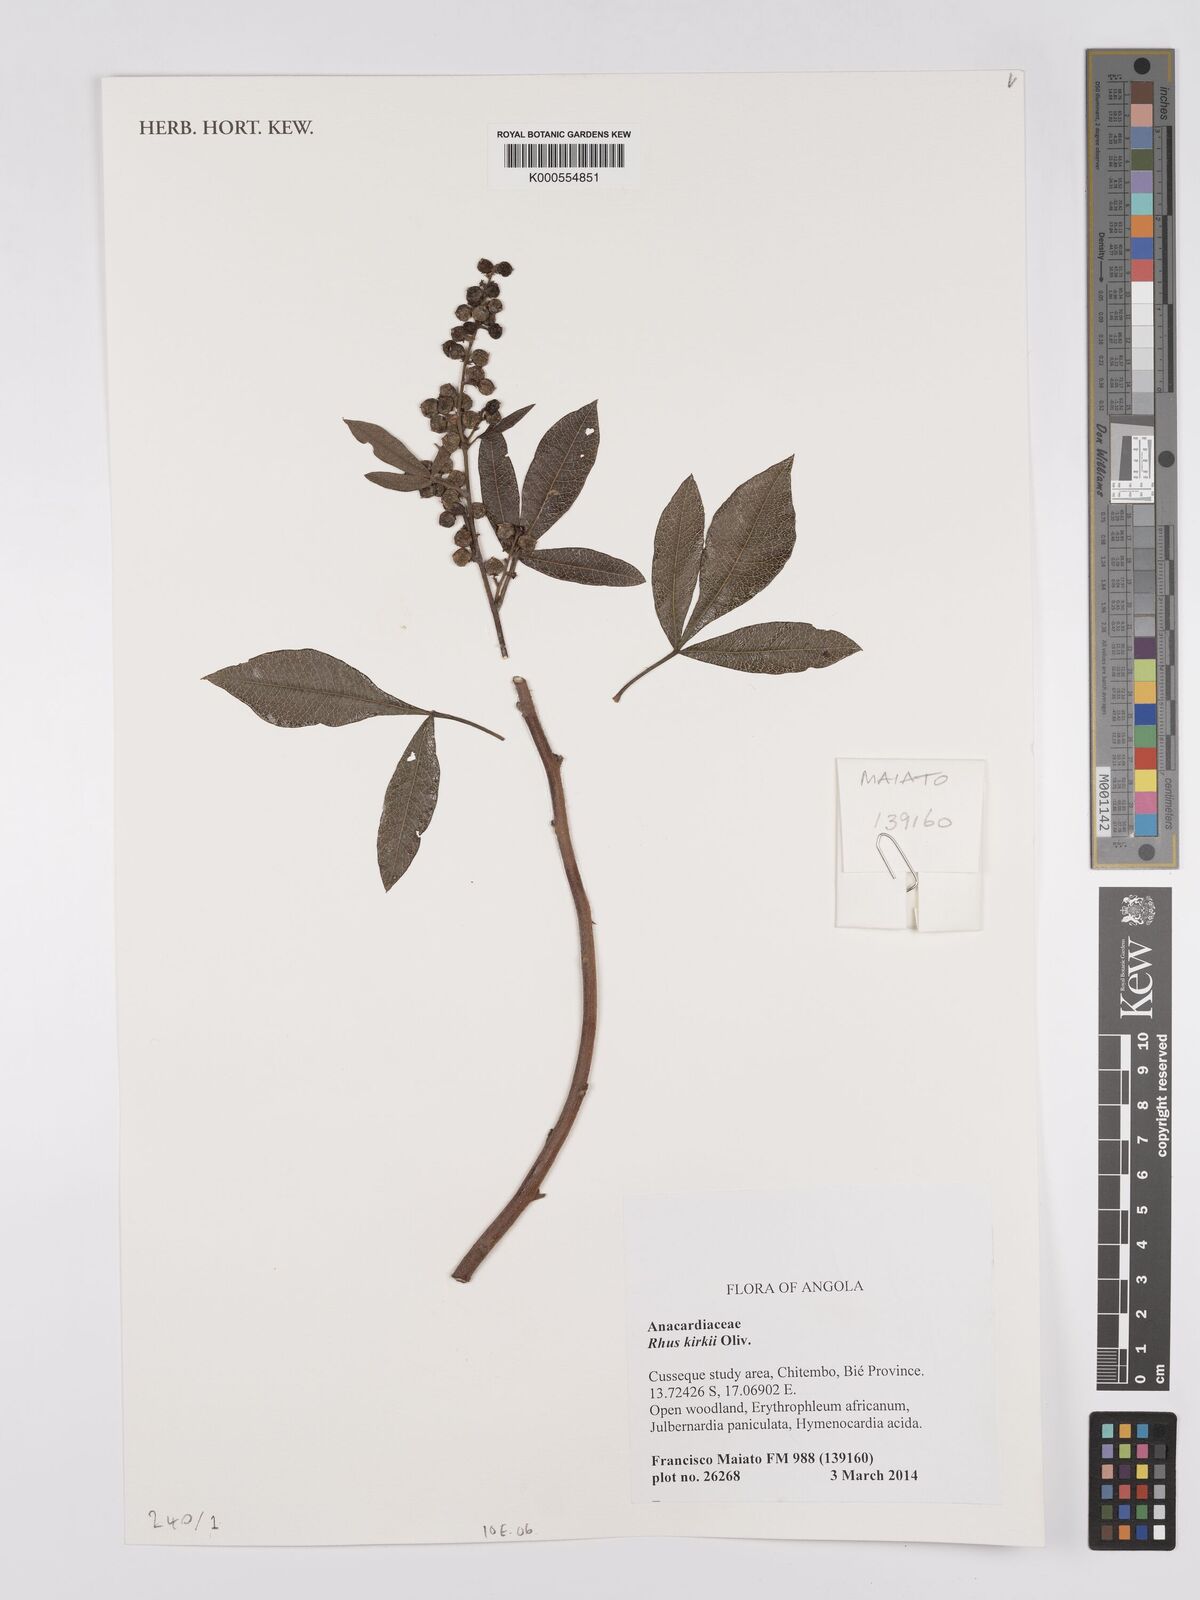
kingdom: Plantae
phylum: Tracheophyta
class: Magnoliopsida
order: Sapindales
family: Anacardiaceae
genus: Searsia
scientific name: Searsia kirkii
